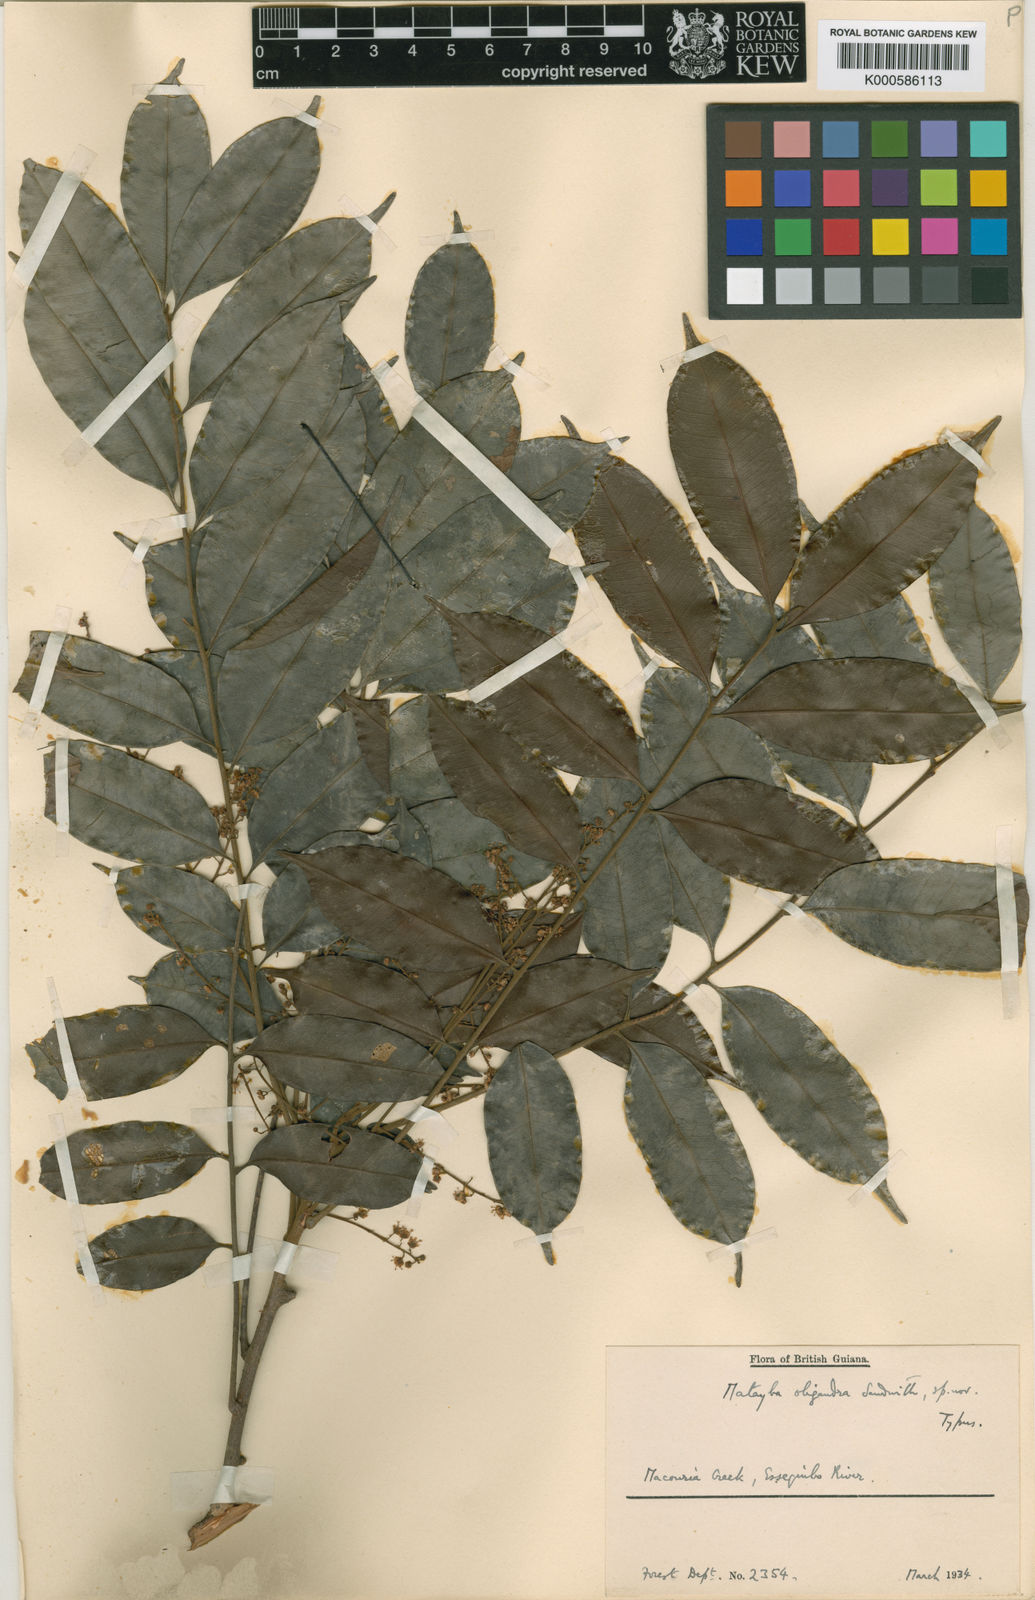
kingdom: Plantae
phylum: Tracheophyta
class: Magnoliopsida
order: Sapindales
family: Sapindaceae
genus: Matayba
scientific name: Matayba peruviana
